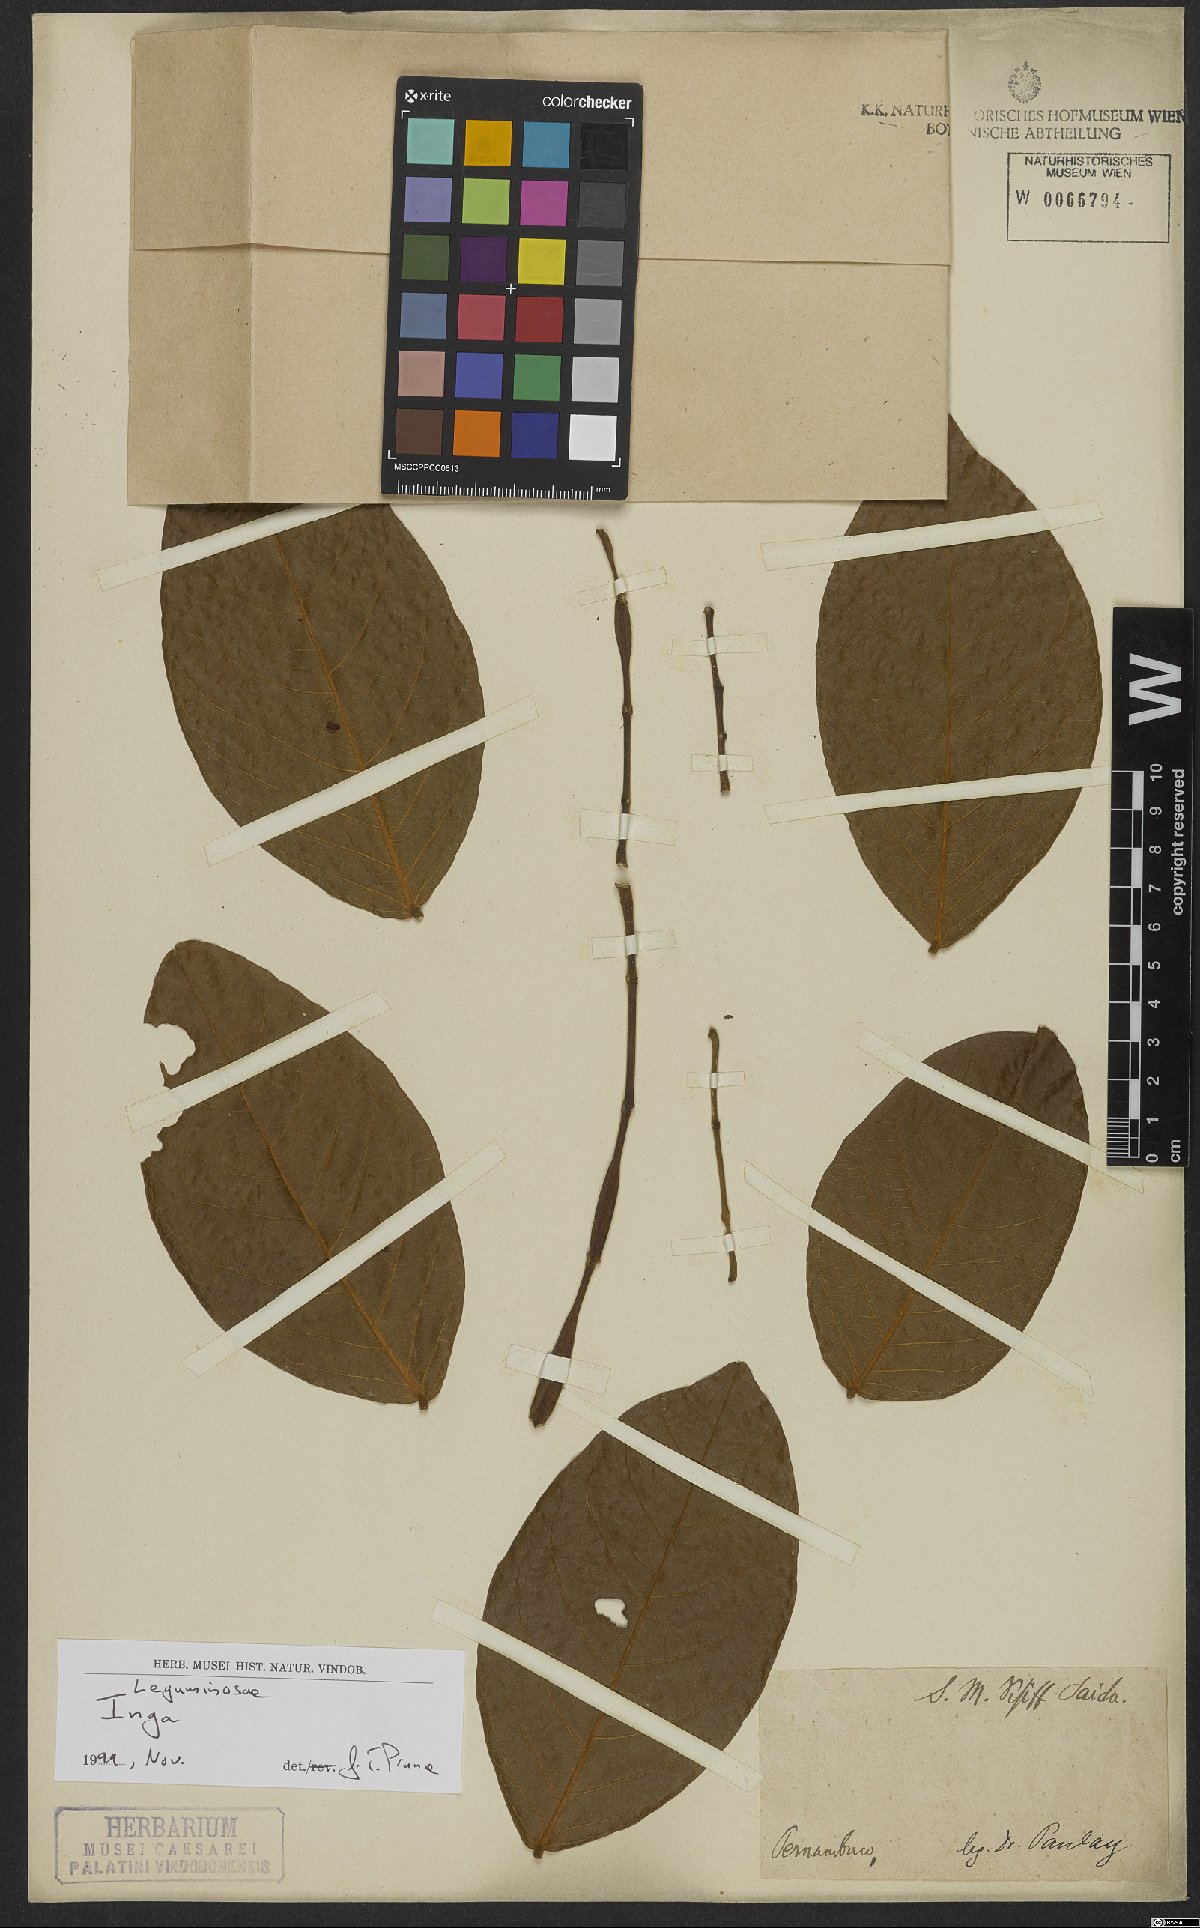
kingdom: Plantae
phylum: Tracheophyta
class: Magnoliopsida
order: Fabales
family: Fabaceae
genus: Inga
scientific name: Inga
